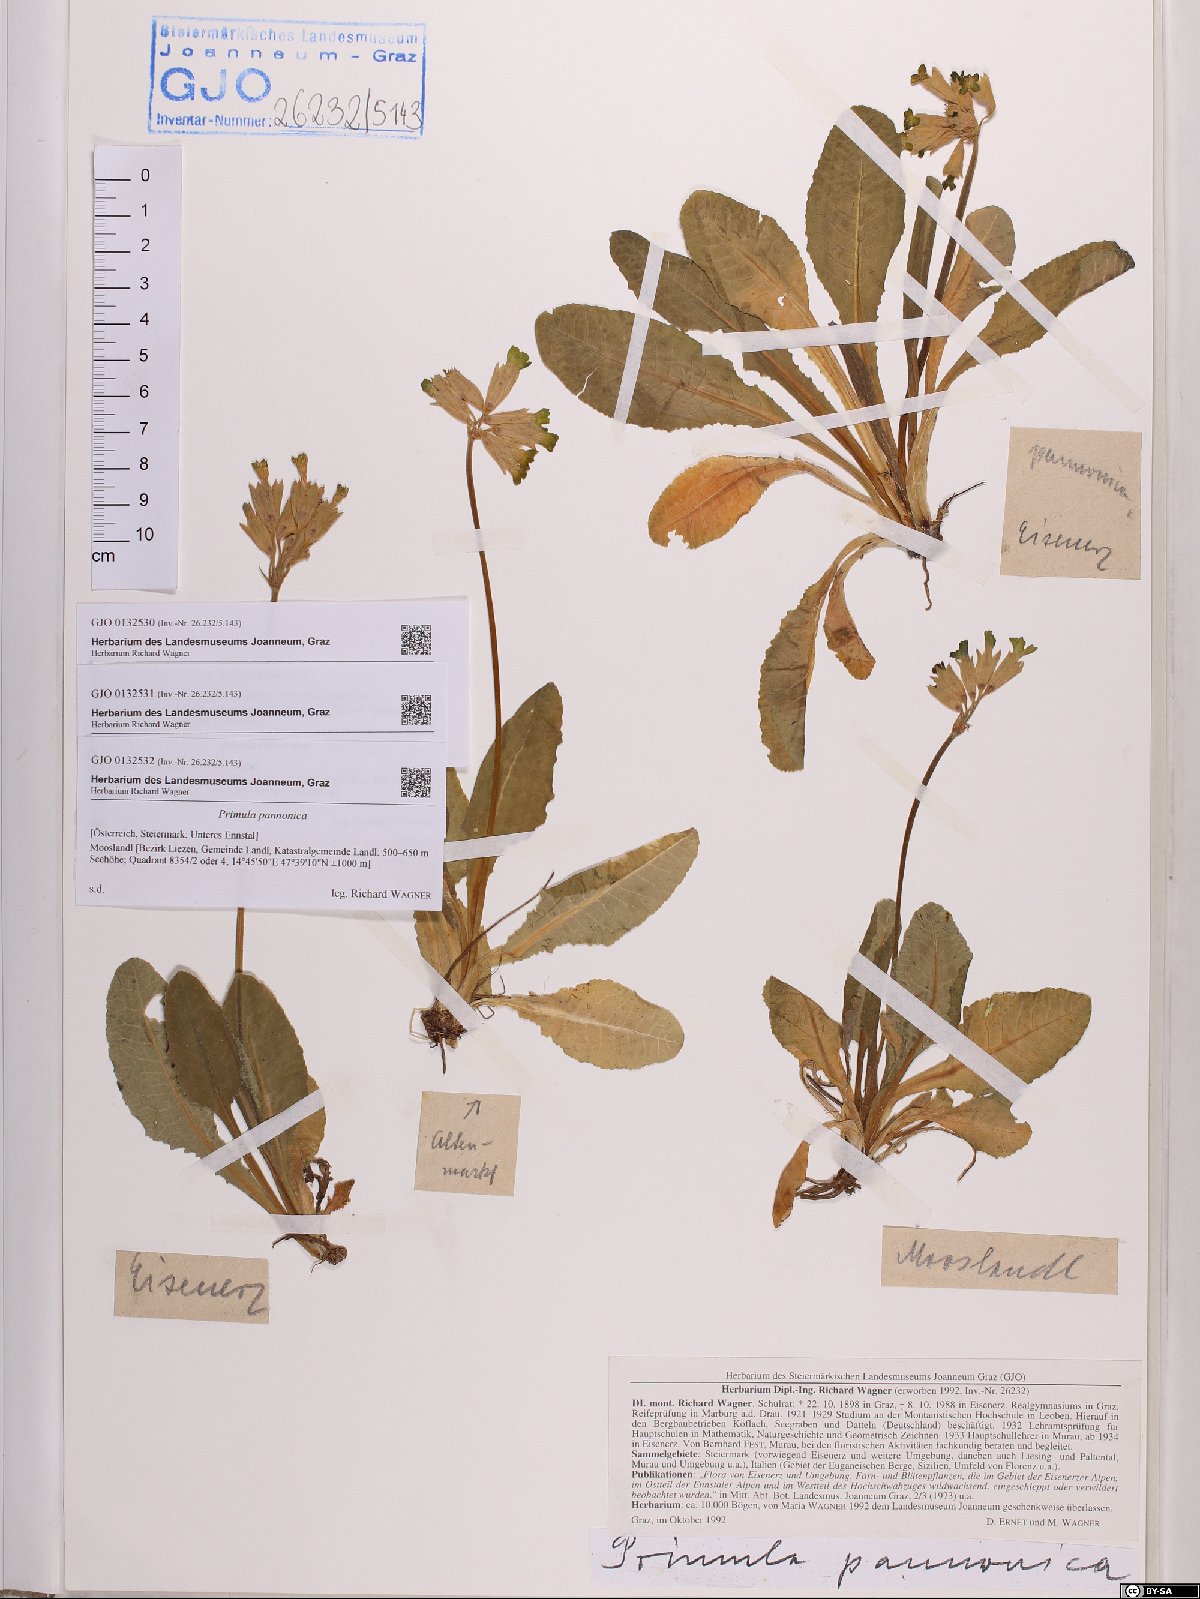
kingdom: Plantae
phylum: Tracheophyta
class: Magnoliopsida
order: Ericales
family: Primulaceae
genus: Primula
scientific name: Primula veris
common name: Cowslip
